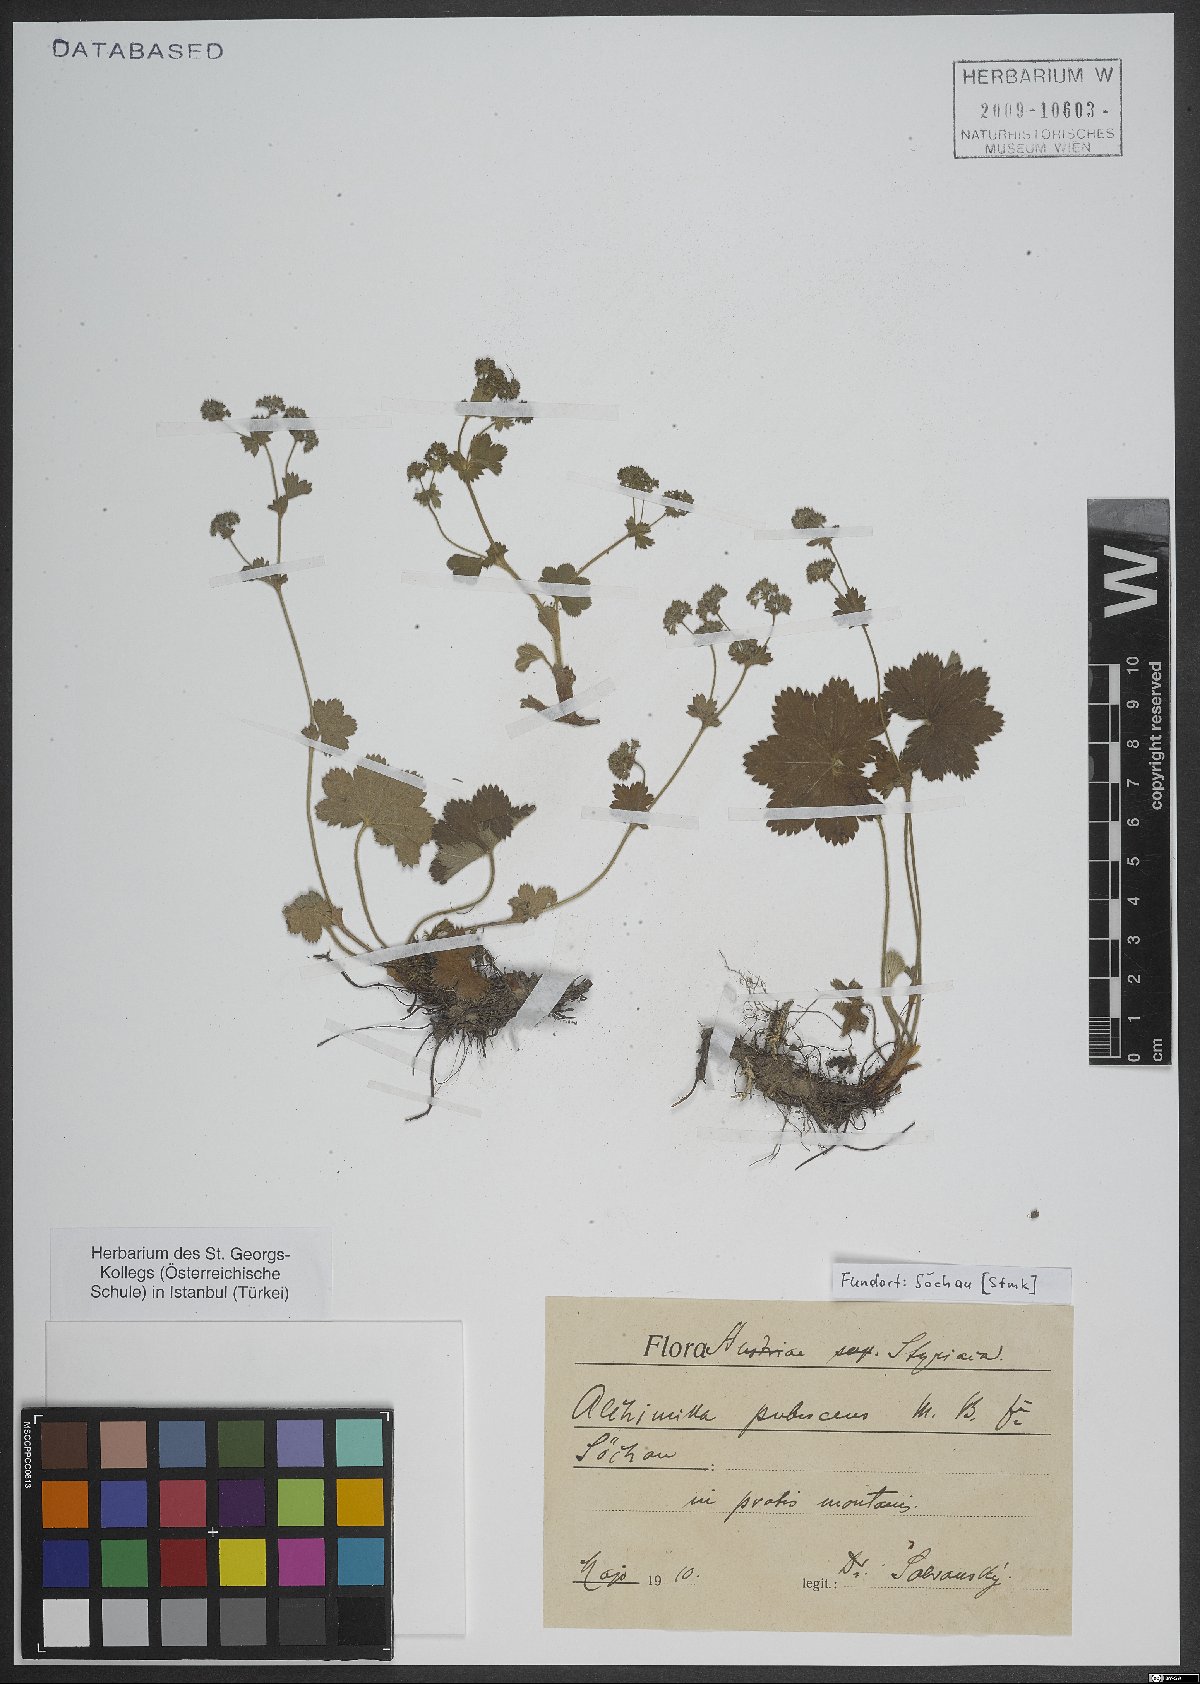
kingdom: Plantae
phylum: Tracheophyta
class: Magnoliopsida
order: Rosales
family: Rosaceae
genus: Alchemilla
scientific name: Alchemilla glaucescens
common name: Silky lady's mantle
